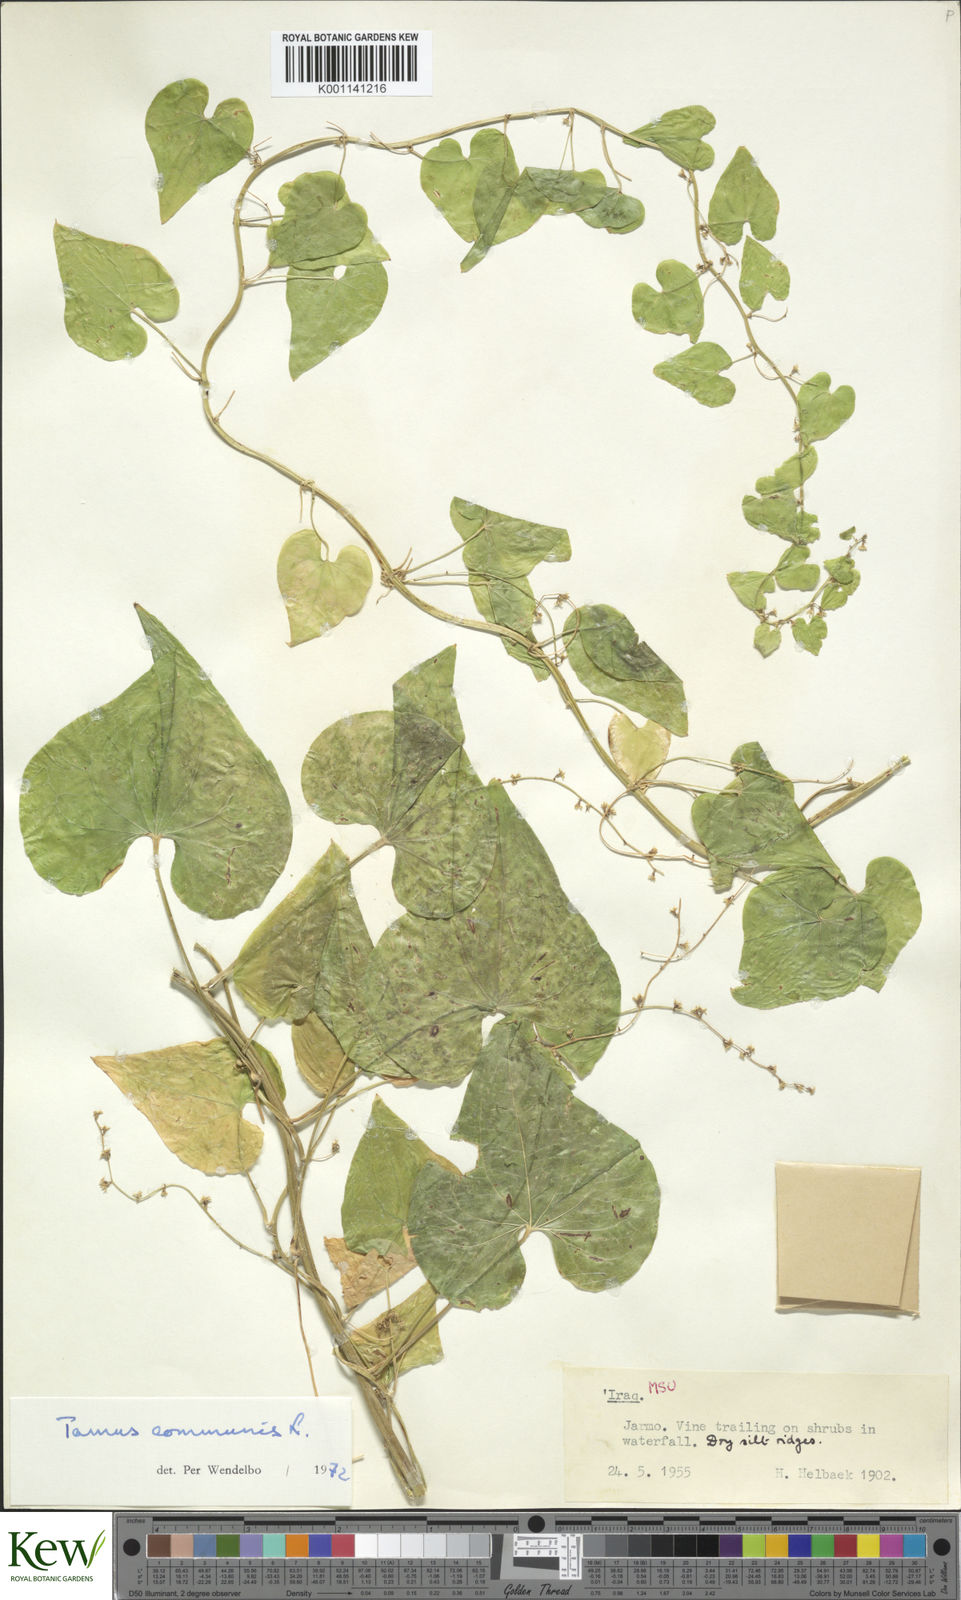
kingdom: Plantae
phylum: Tracheophyta
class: Liliopsida
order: Dioscoreales
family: Dioscoreaceae
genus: Dioscorea
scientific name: Dioscorea communis
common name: Black-bindweed
